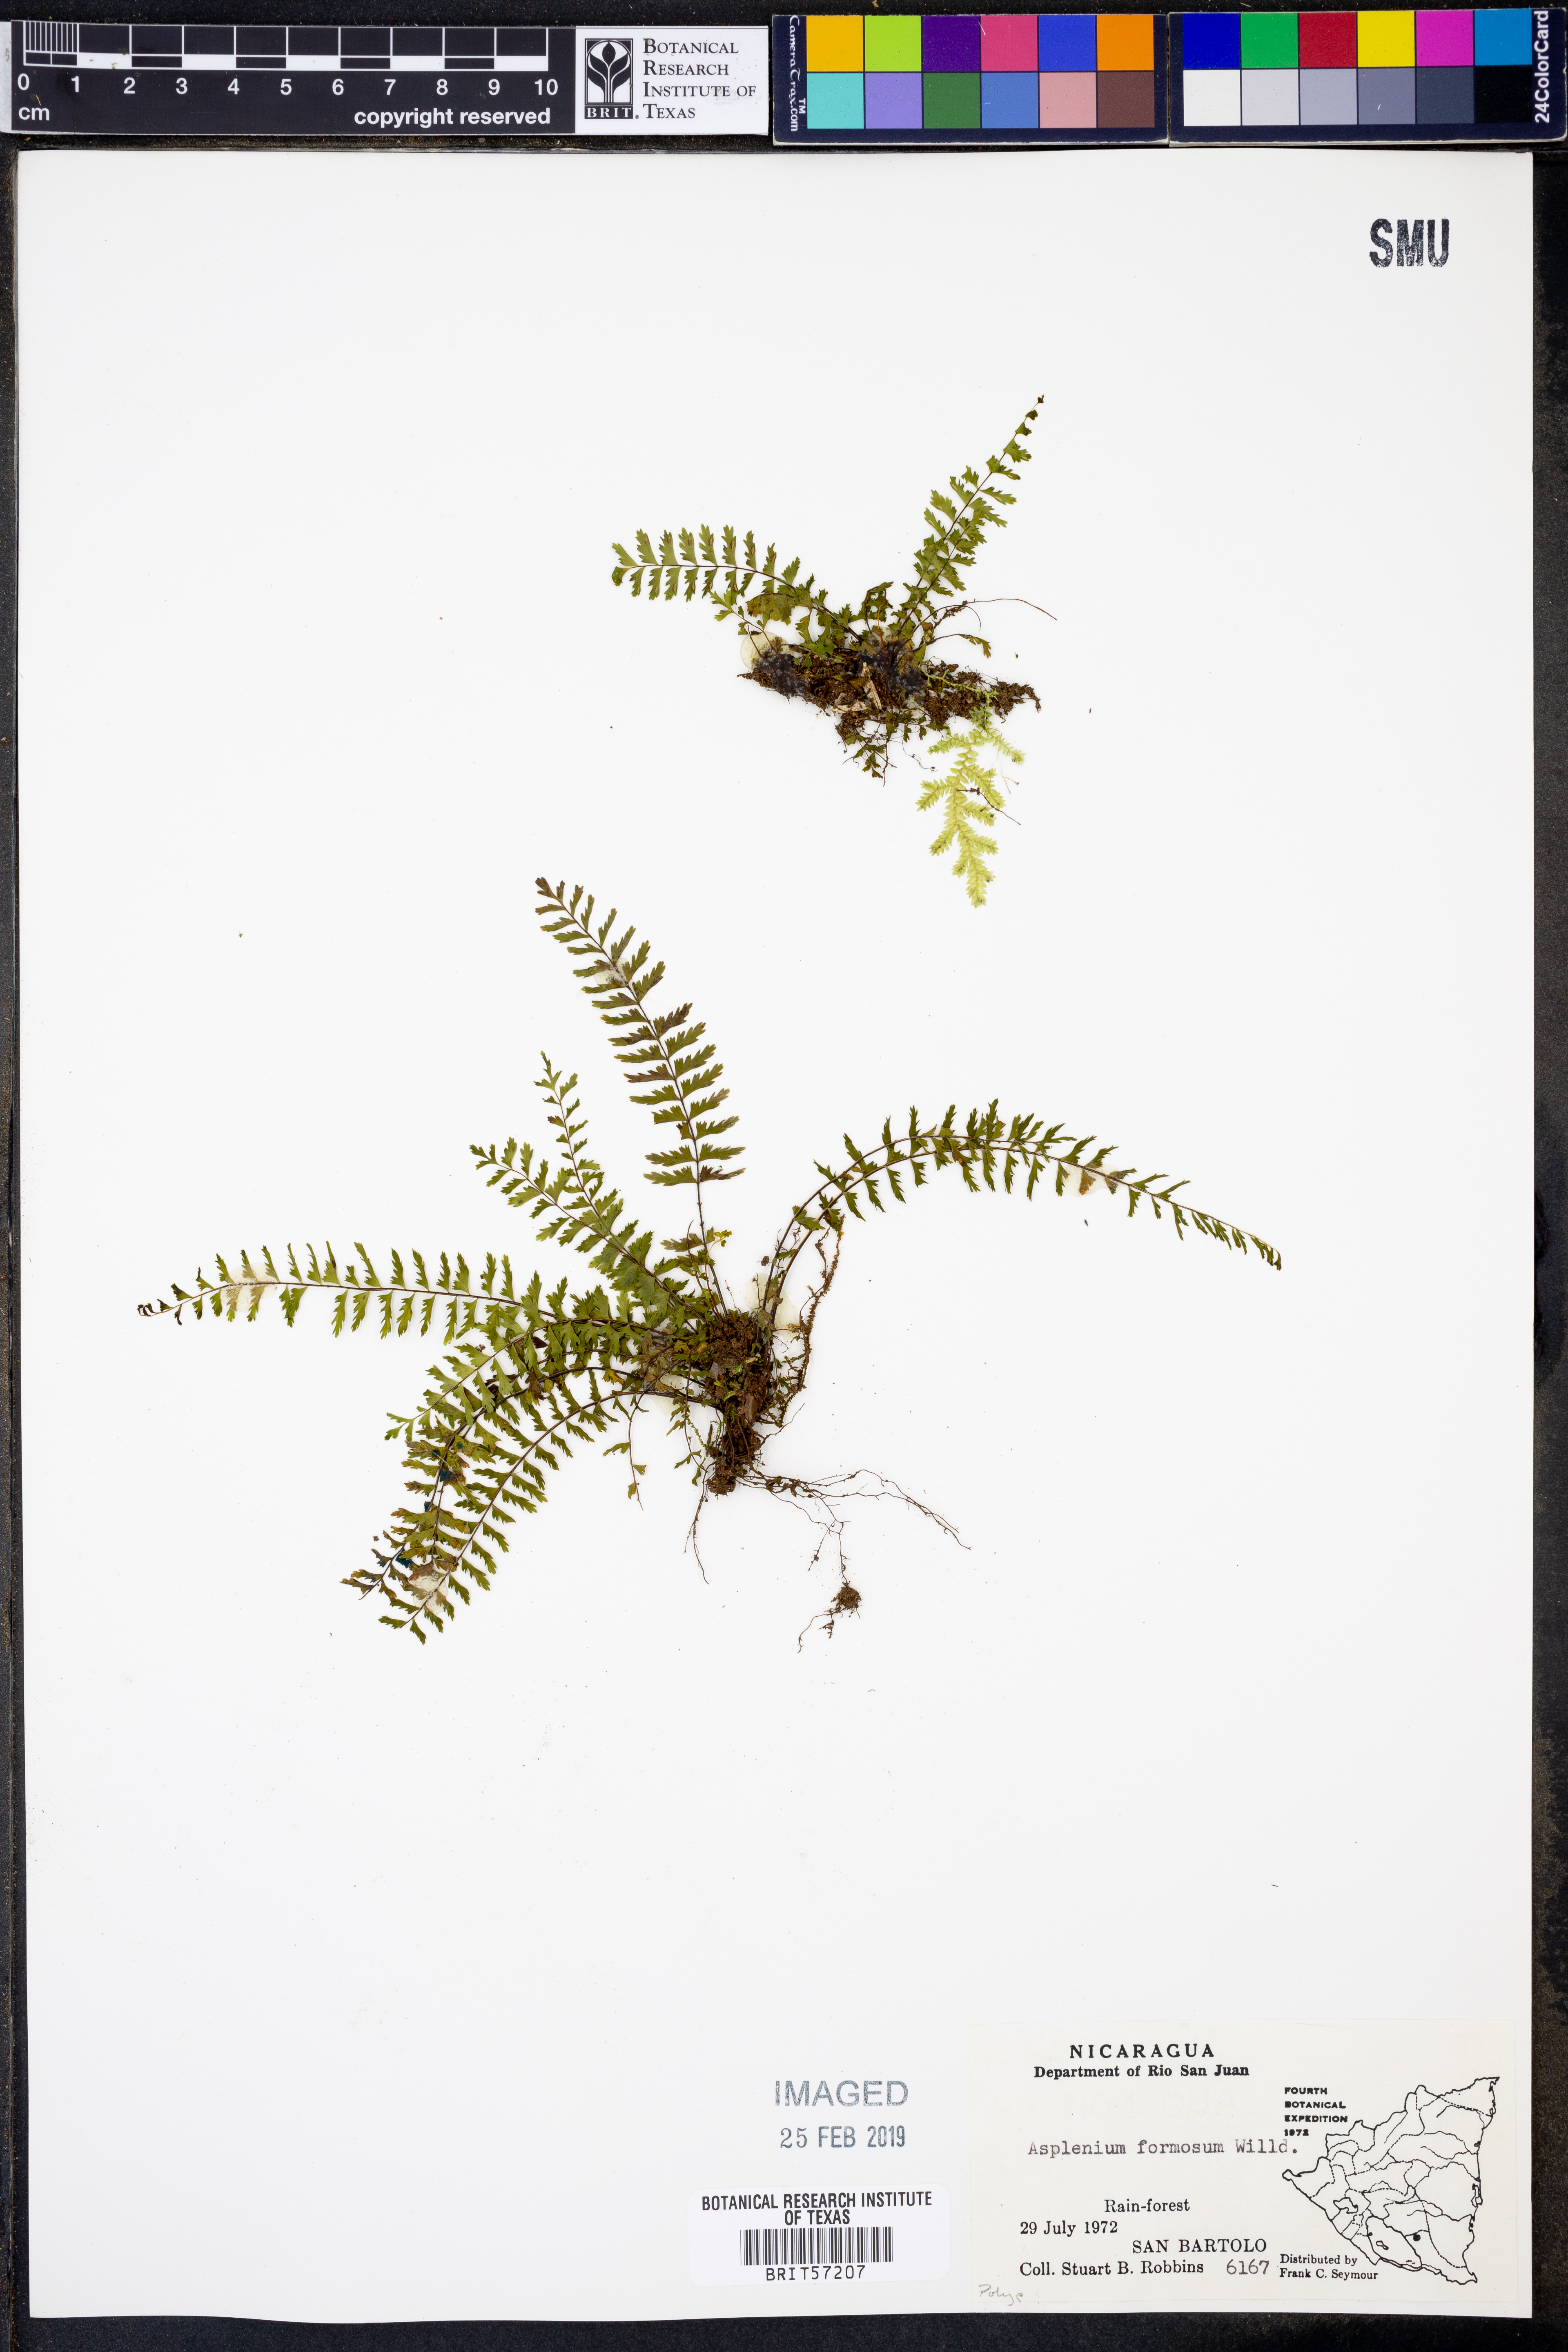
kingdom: Plantae
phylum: Tracheophyta
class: Polypodiopsida
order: Polypodiales
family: Aspleniaceae
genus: Asplenium
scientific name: Asplenium formosum
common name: Showy spleenwort
